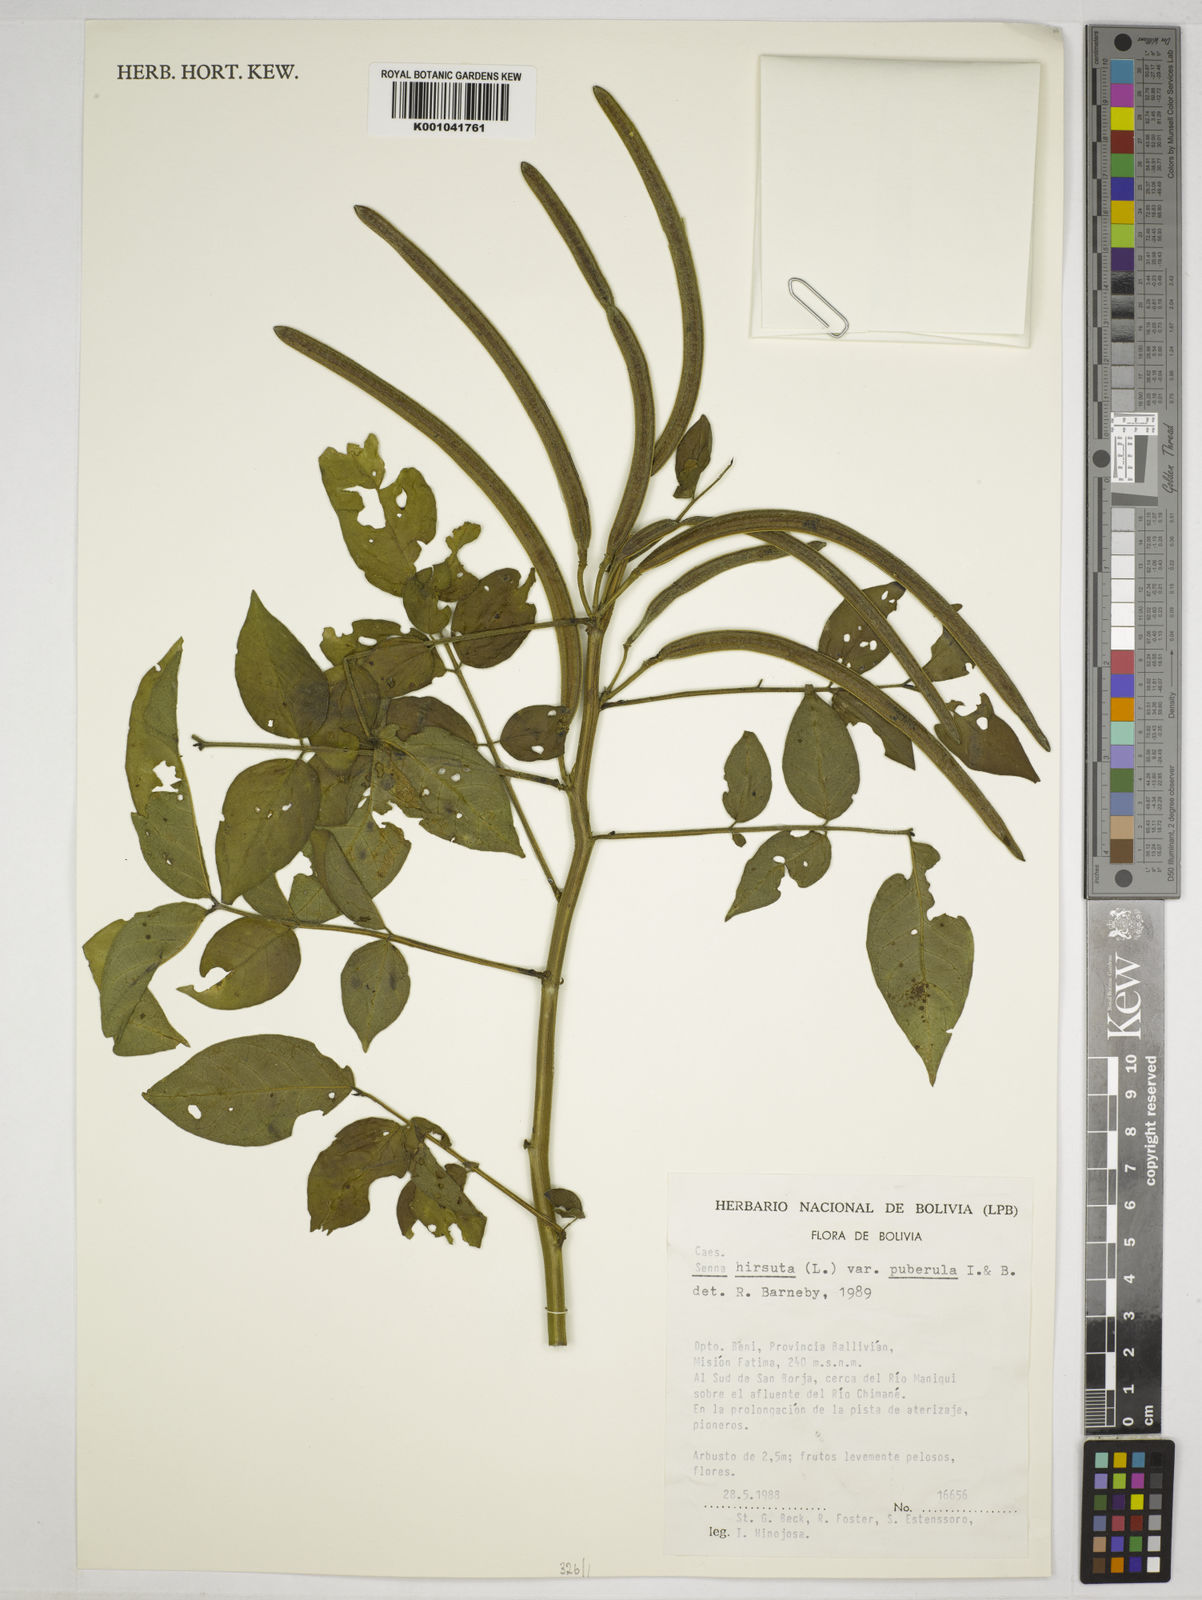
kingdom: Plantae
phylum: Tracheophyta
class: Magnoliopsida
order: Fabales
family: Fabaceae
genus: Senna
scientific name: Senna hirsuta
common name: Woolly senna
